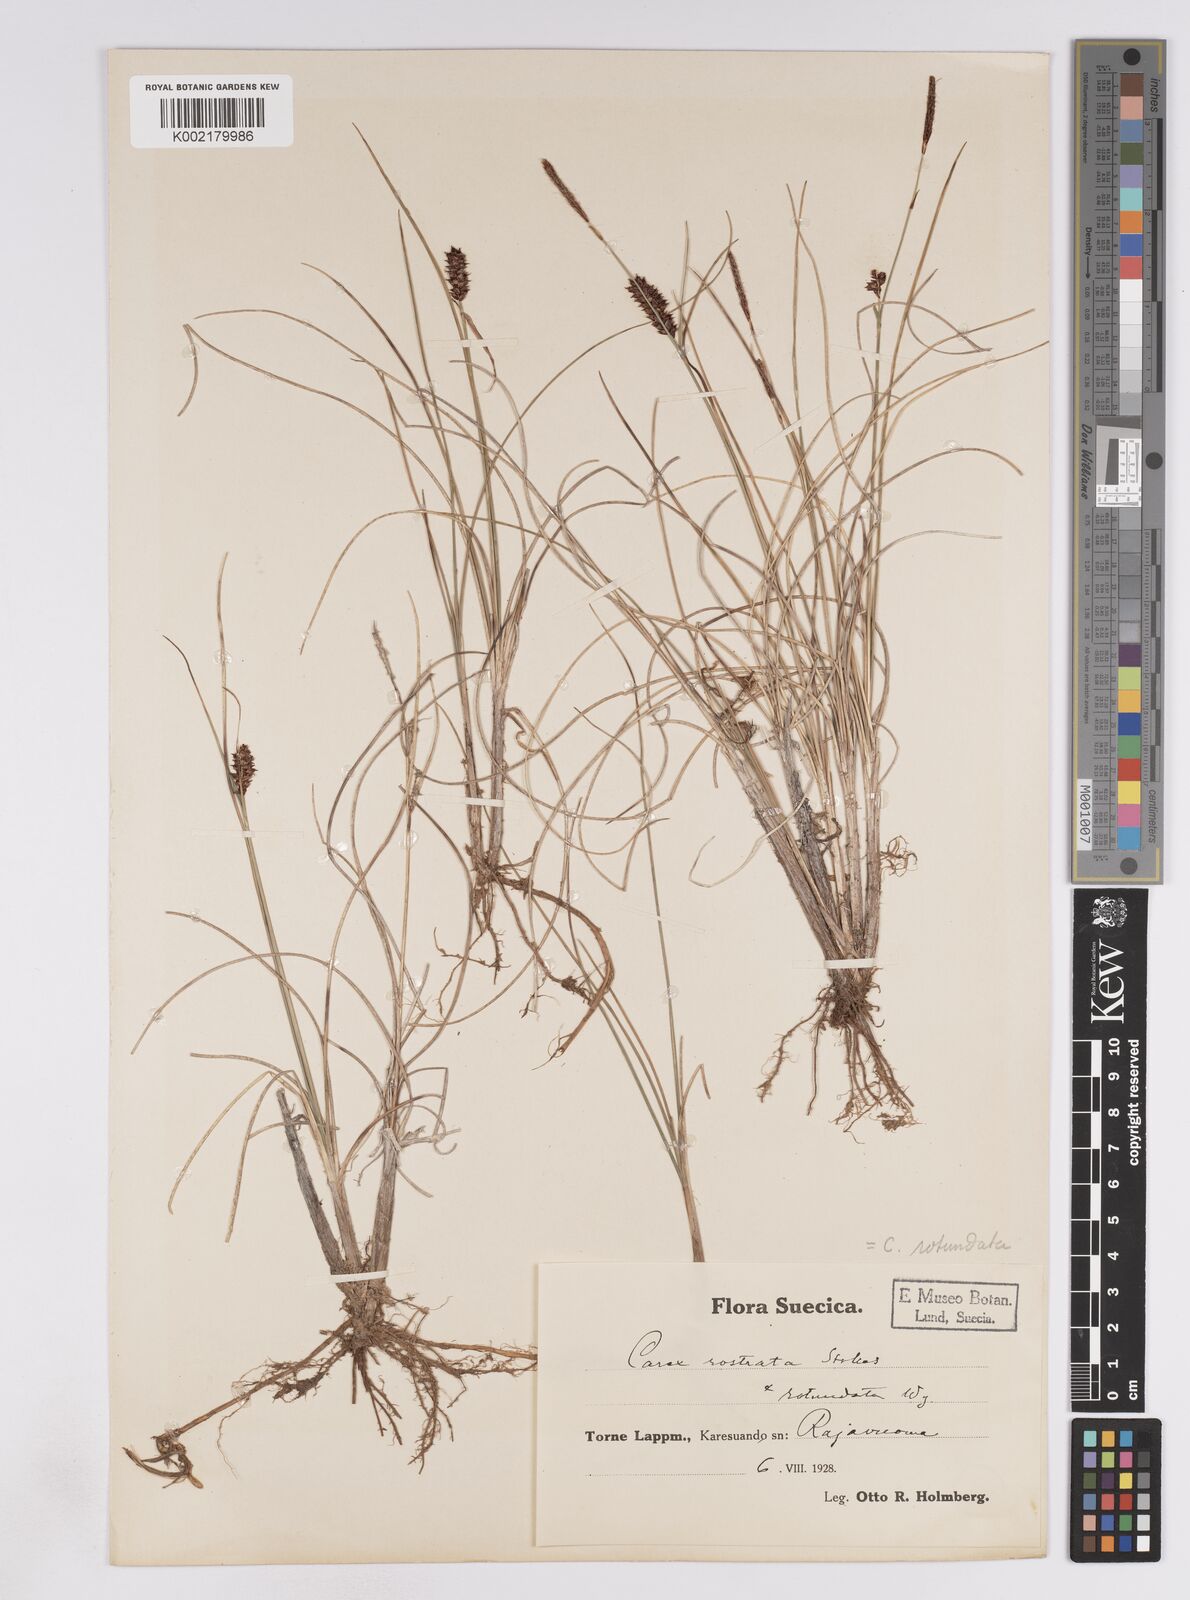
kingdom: Plantae
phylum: Tracheophyta
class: Liliopsida
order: Poales
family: Cyperaceae
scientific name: Cyperaceae
